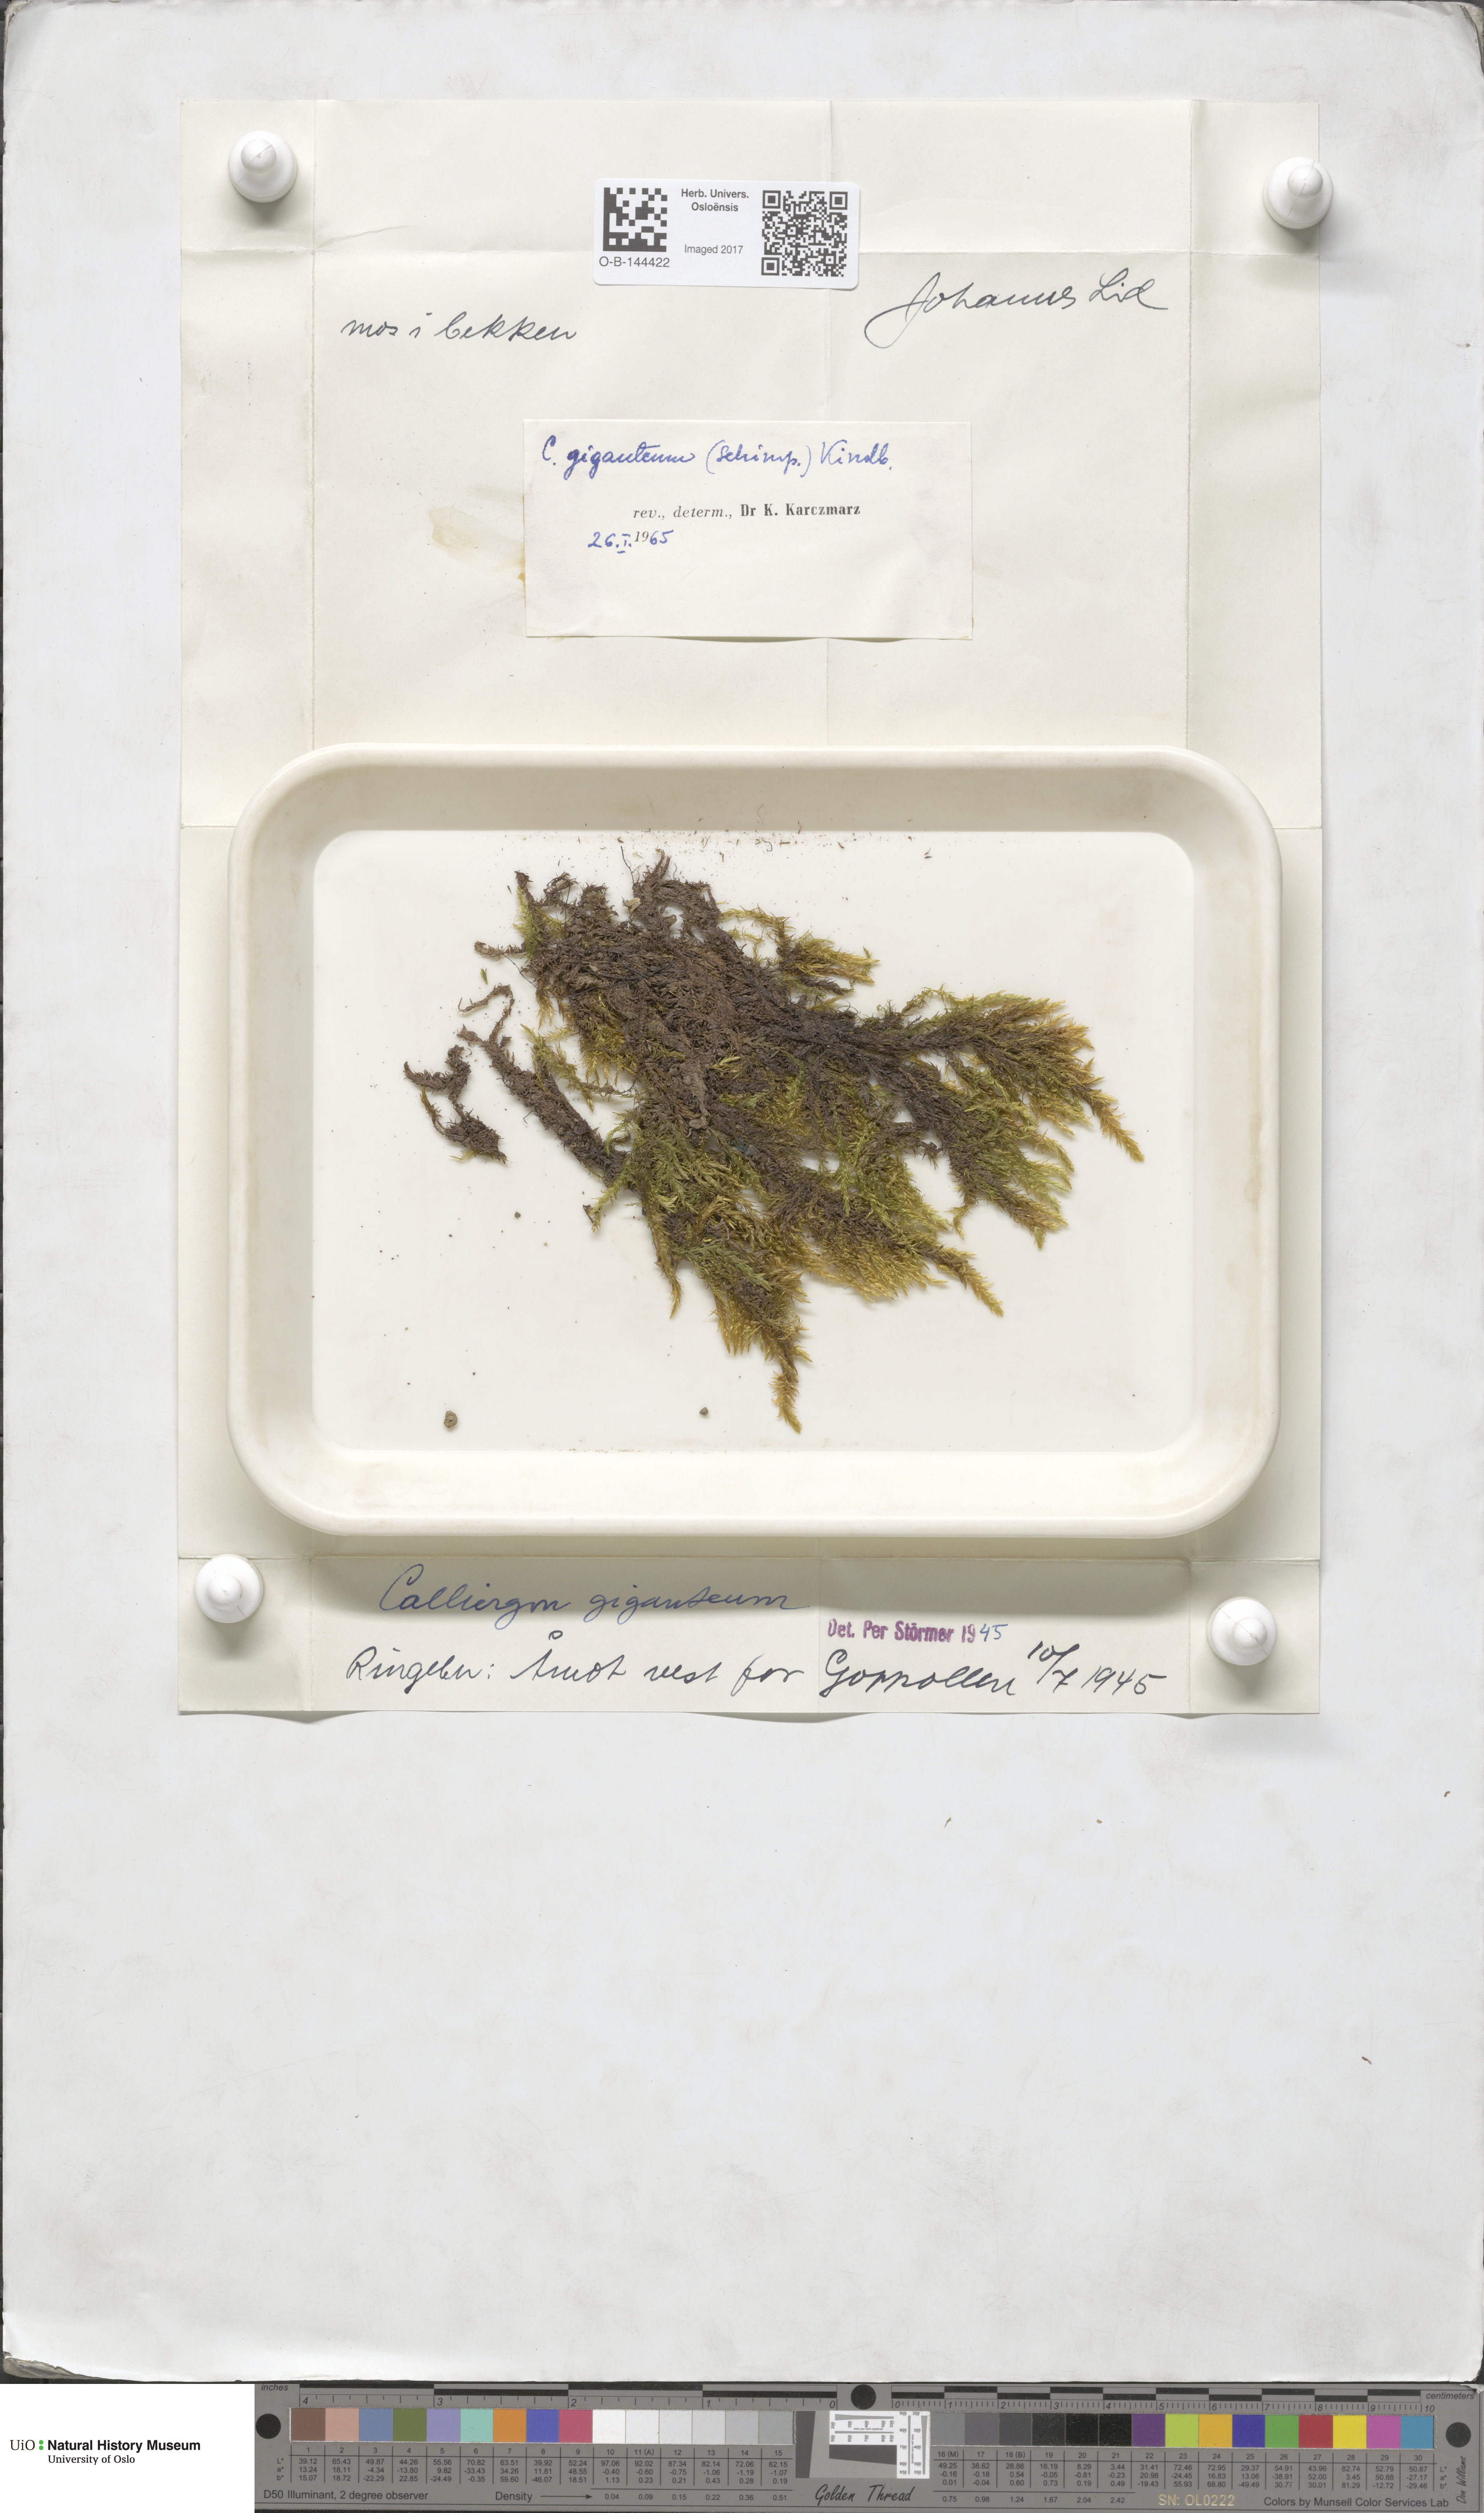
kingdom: Plantae
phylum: Bryophyta
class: Bryopsida
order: Hypnales
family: Calliergonaceae
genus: Calliergon
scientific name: Calliergon giganteum
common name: Giant spear moss
